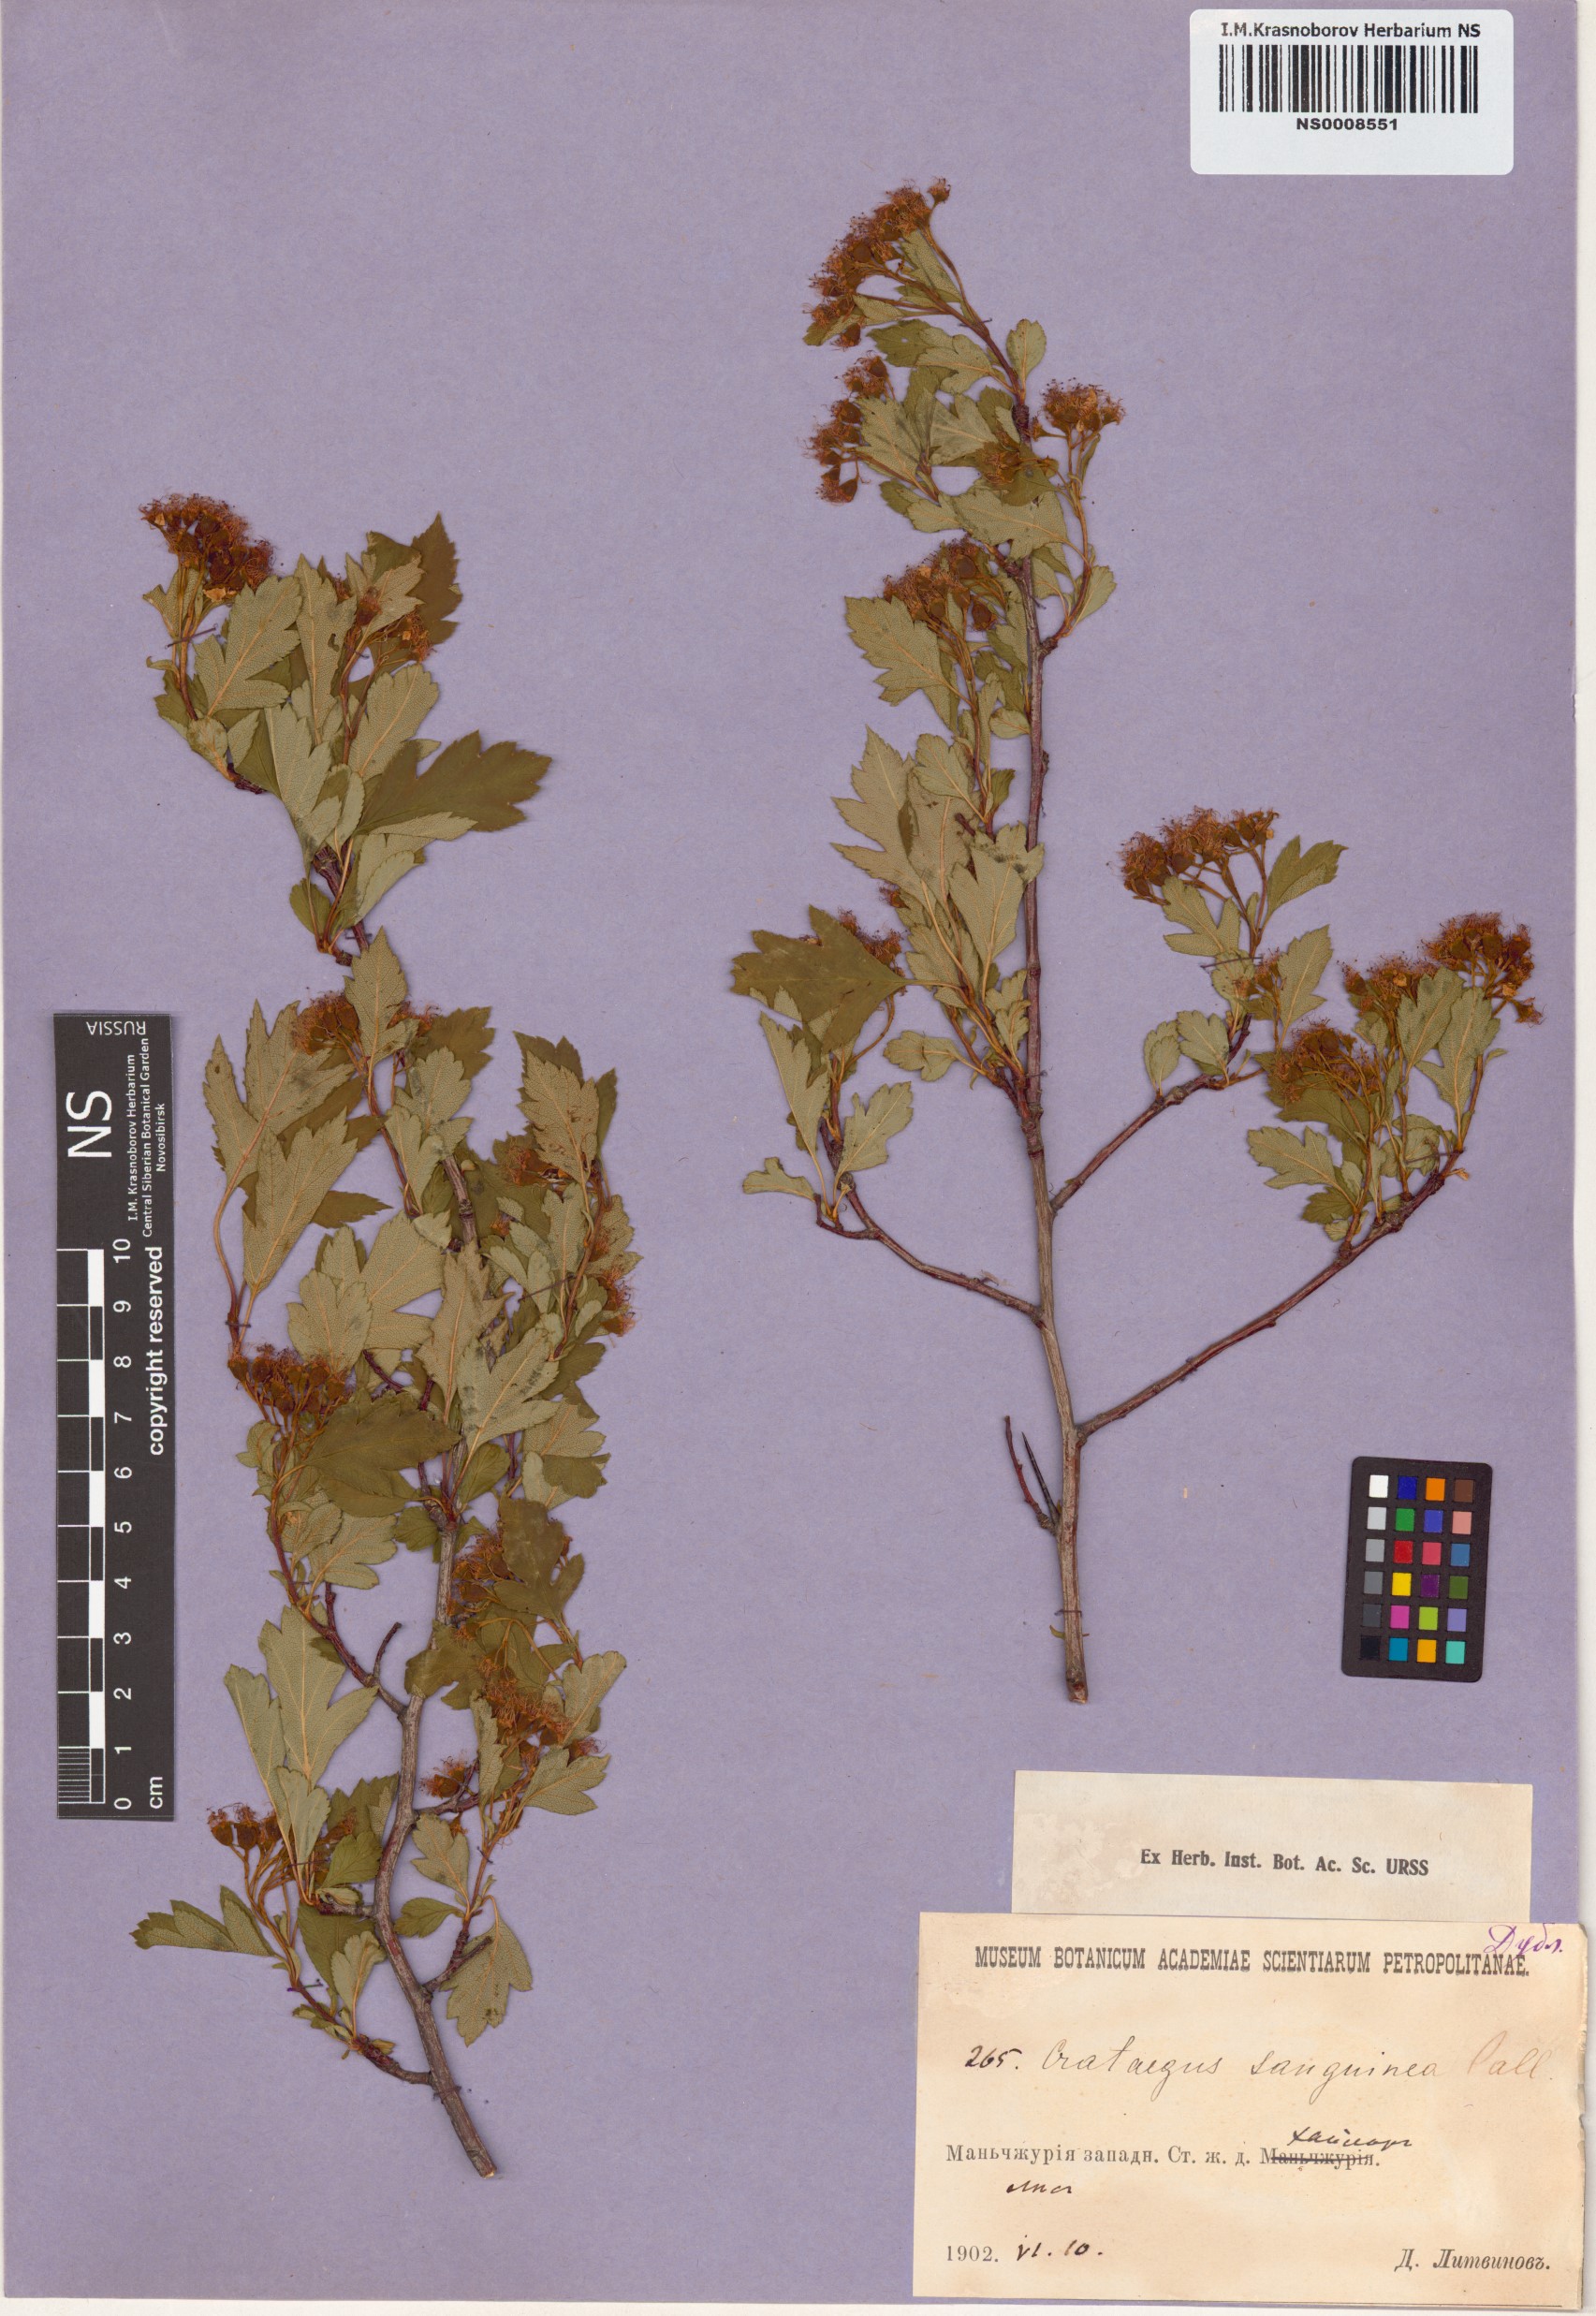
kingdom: Plantae
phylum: Tracheophyta
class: Magnoliopsida
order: Rosales
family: Rosaceae
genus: Crataegus
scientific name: Crataegus sanguinea
